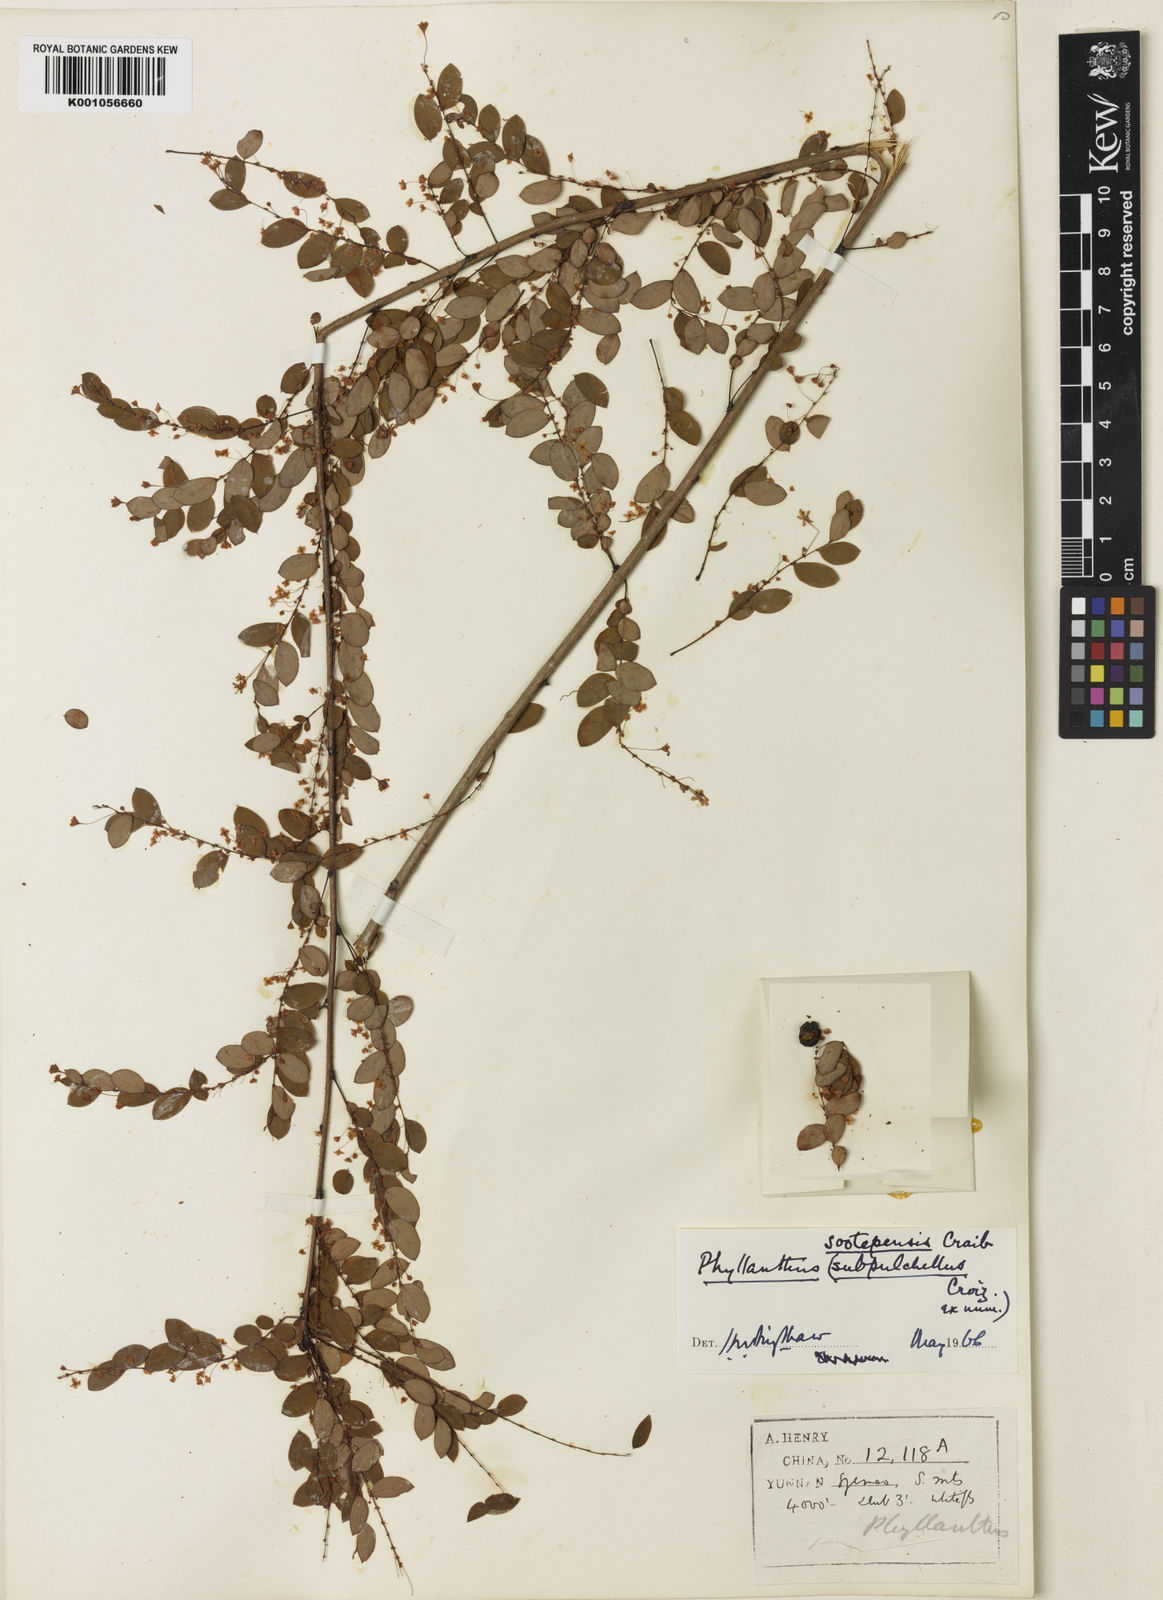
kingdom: Plantae
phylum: Tracheophyta
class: Magnoliopsida
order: Malpighiales
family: Phyllanthaceae
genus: Phyllanthus
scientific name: Phyllanthus sootepensis
